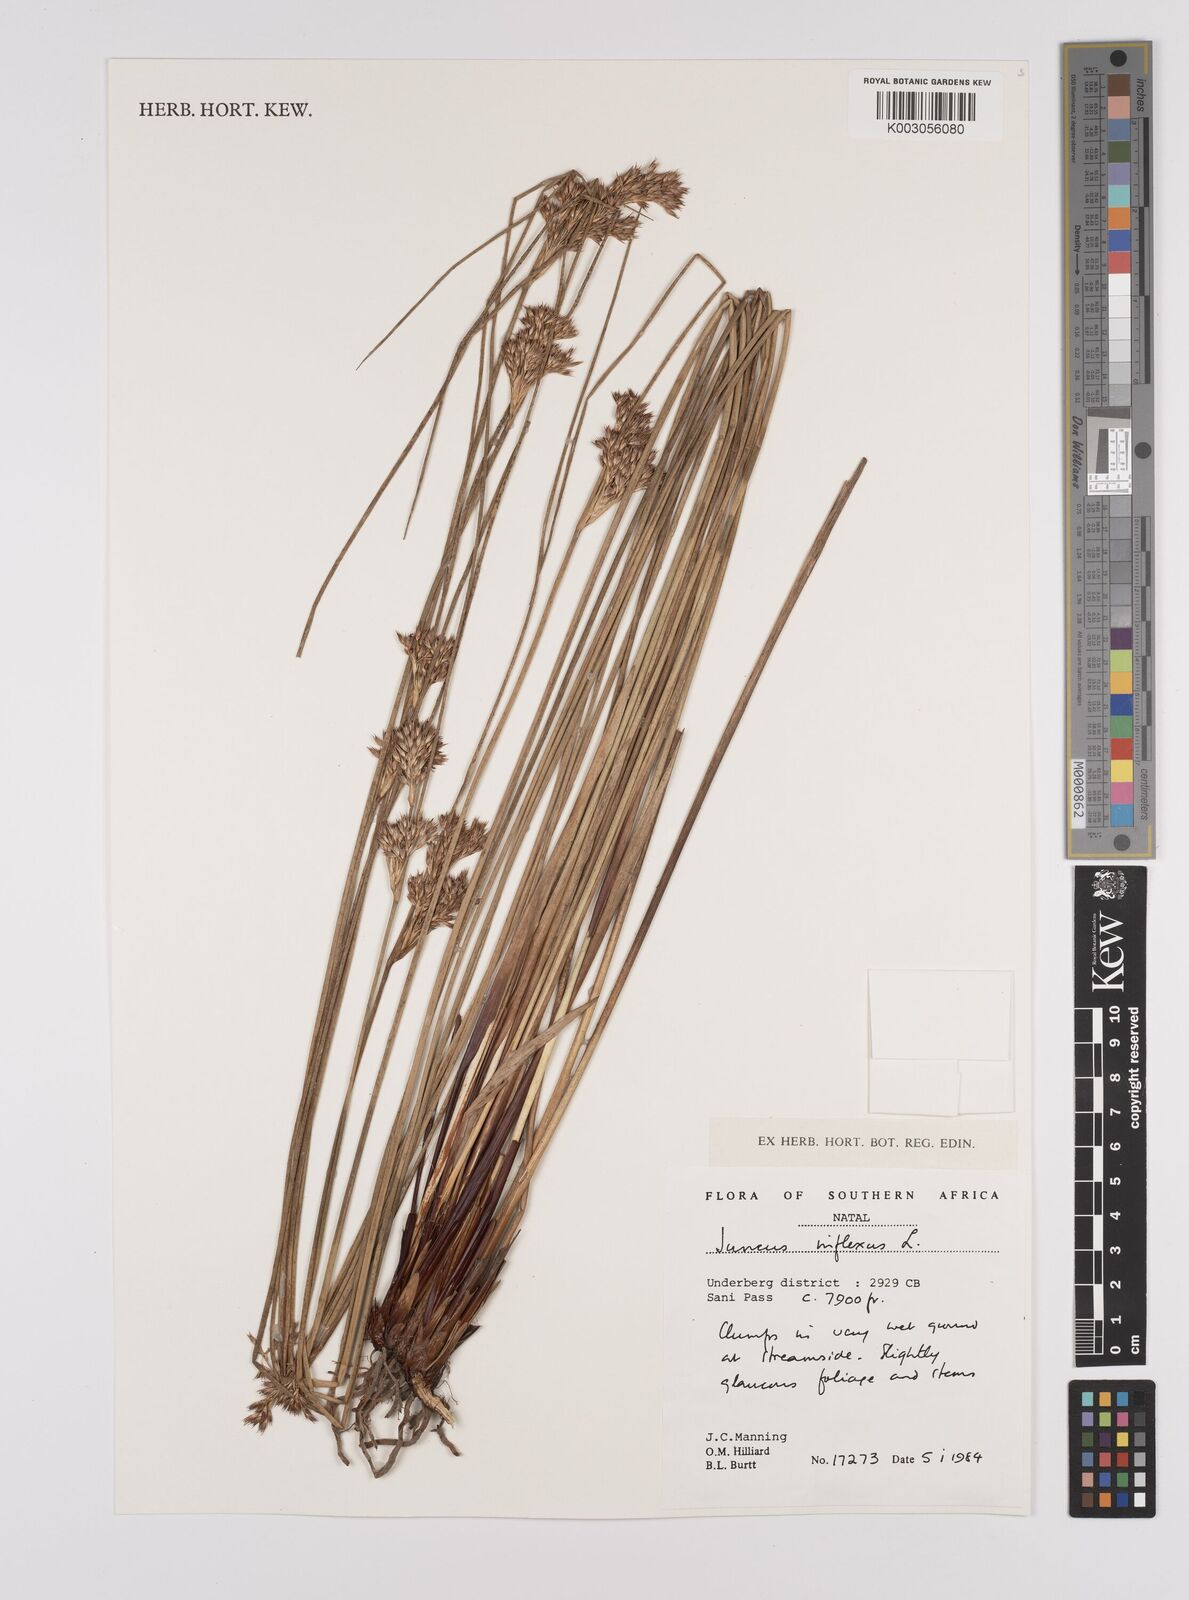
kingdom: Plantae
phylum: Tracheophyta
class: Liliopsida
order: Poales
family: Juncaceae
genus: Juncus
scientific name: Juncus inflexus
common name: Hard rush
